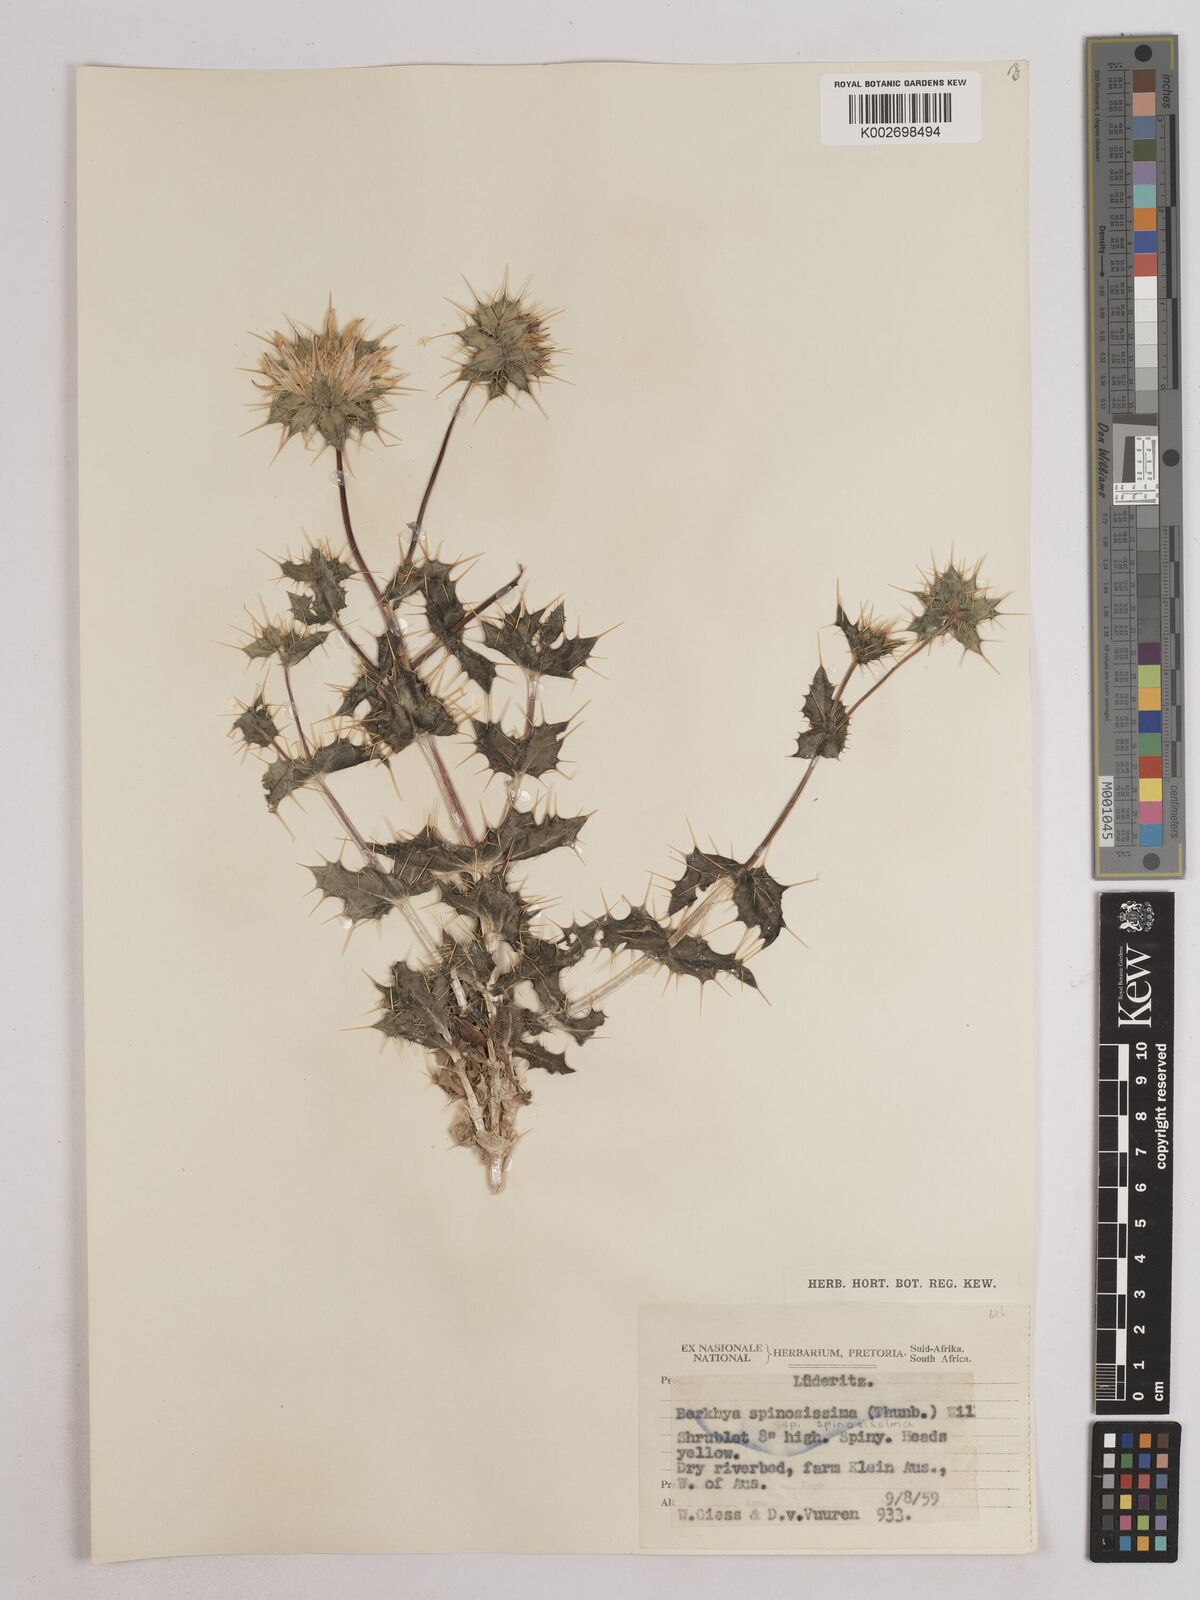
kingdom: Plantae
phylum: Tracheophyta
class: Magnoliopsida
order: Asterales
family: Asteraceae
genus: Berkheya
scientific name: Berkheya spinosissima
